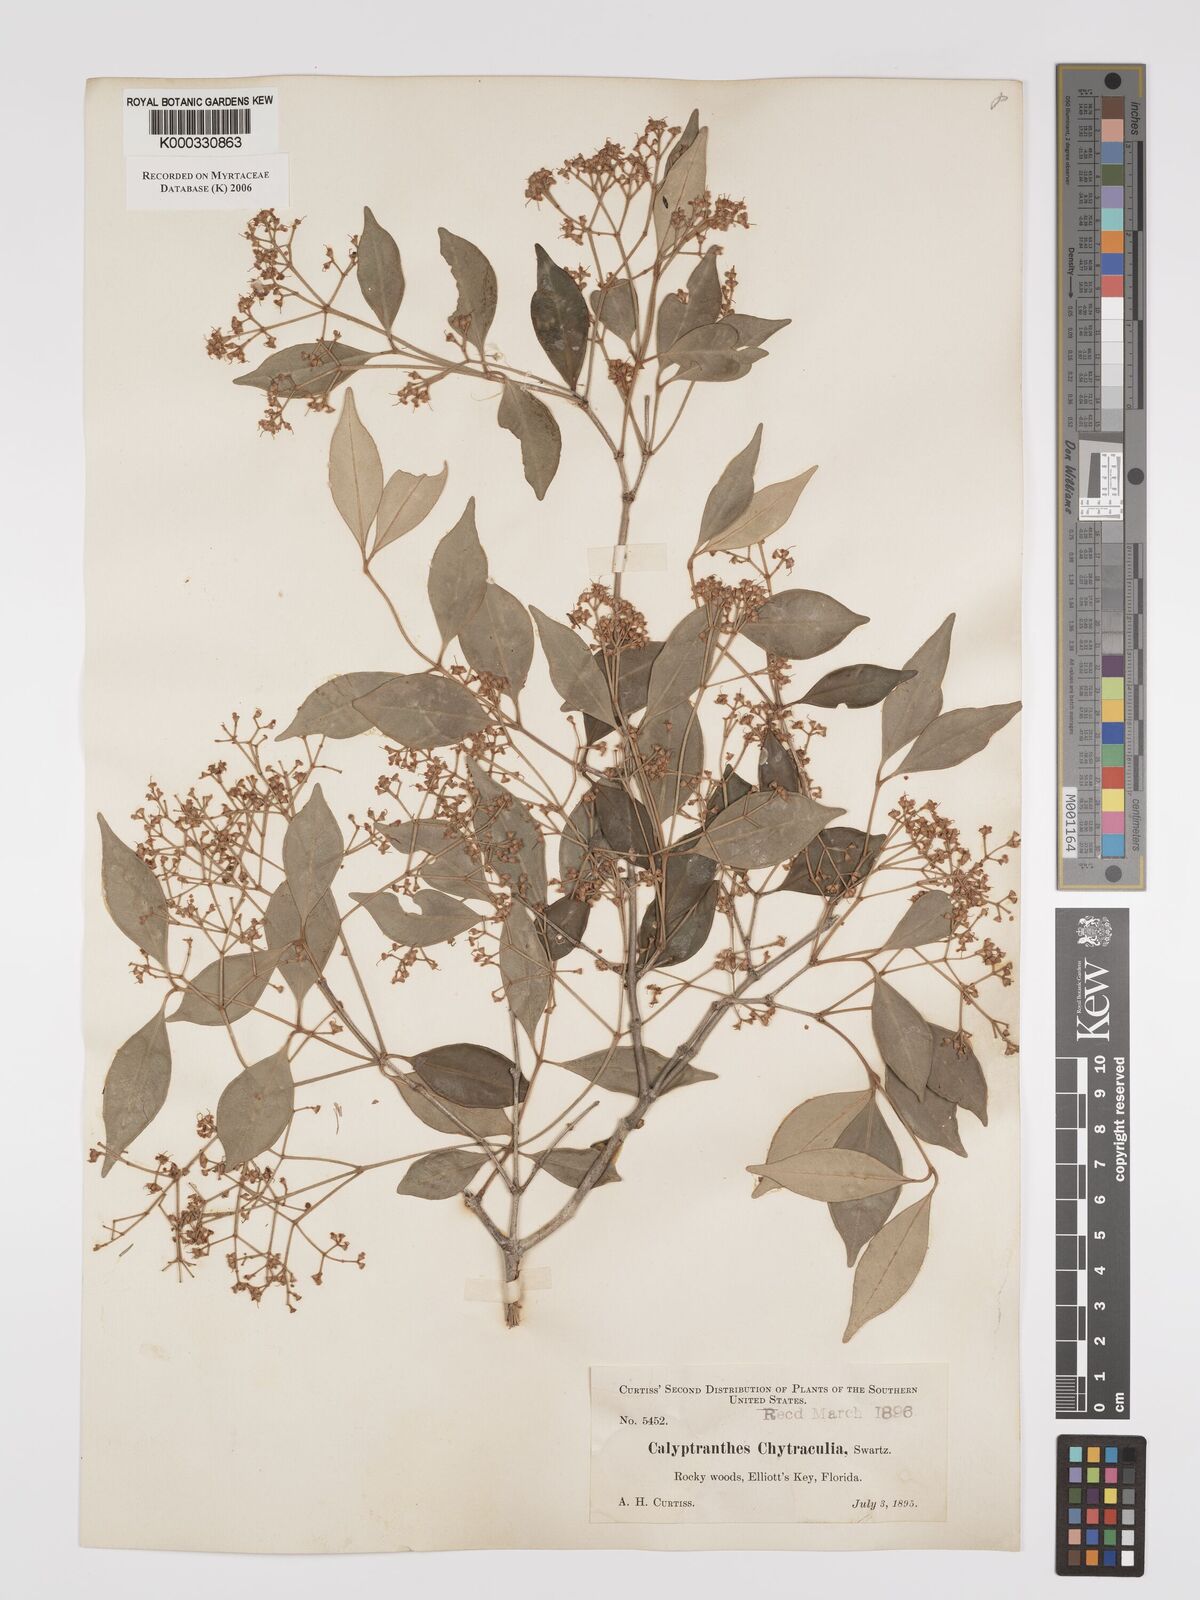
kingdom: Plantae
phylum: Tracheophyta
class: Magnoliopsida
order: Myrtales
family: Myrtaceae
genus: Myrcia
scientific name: Myrcia chytraculia
